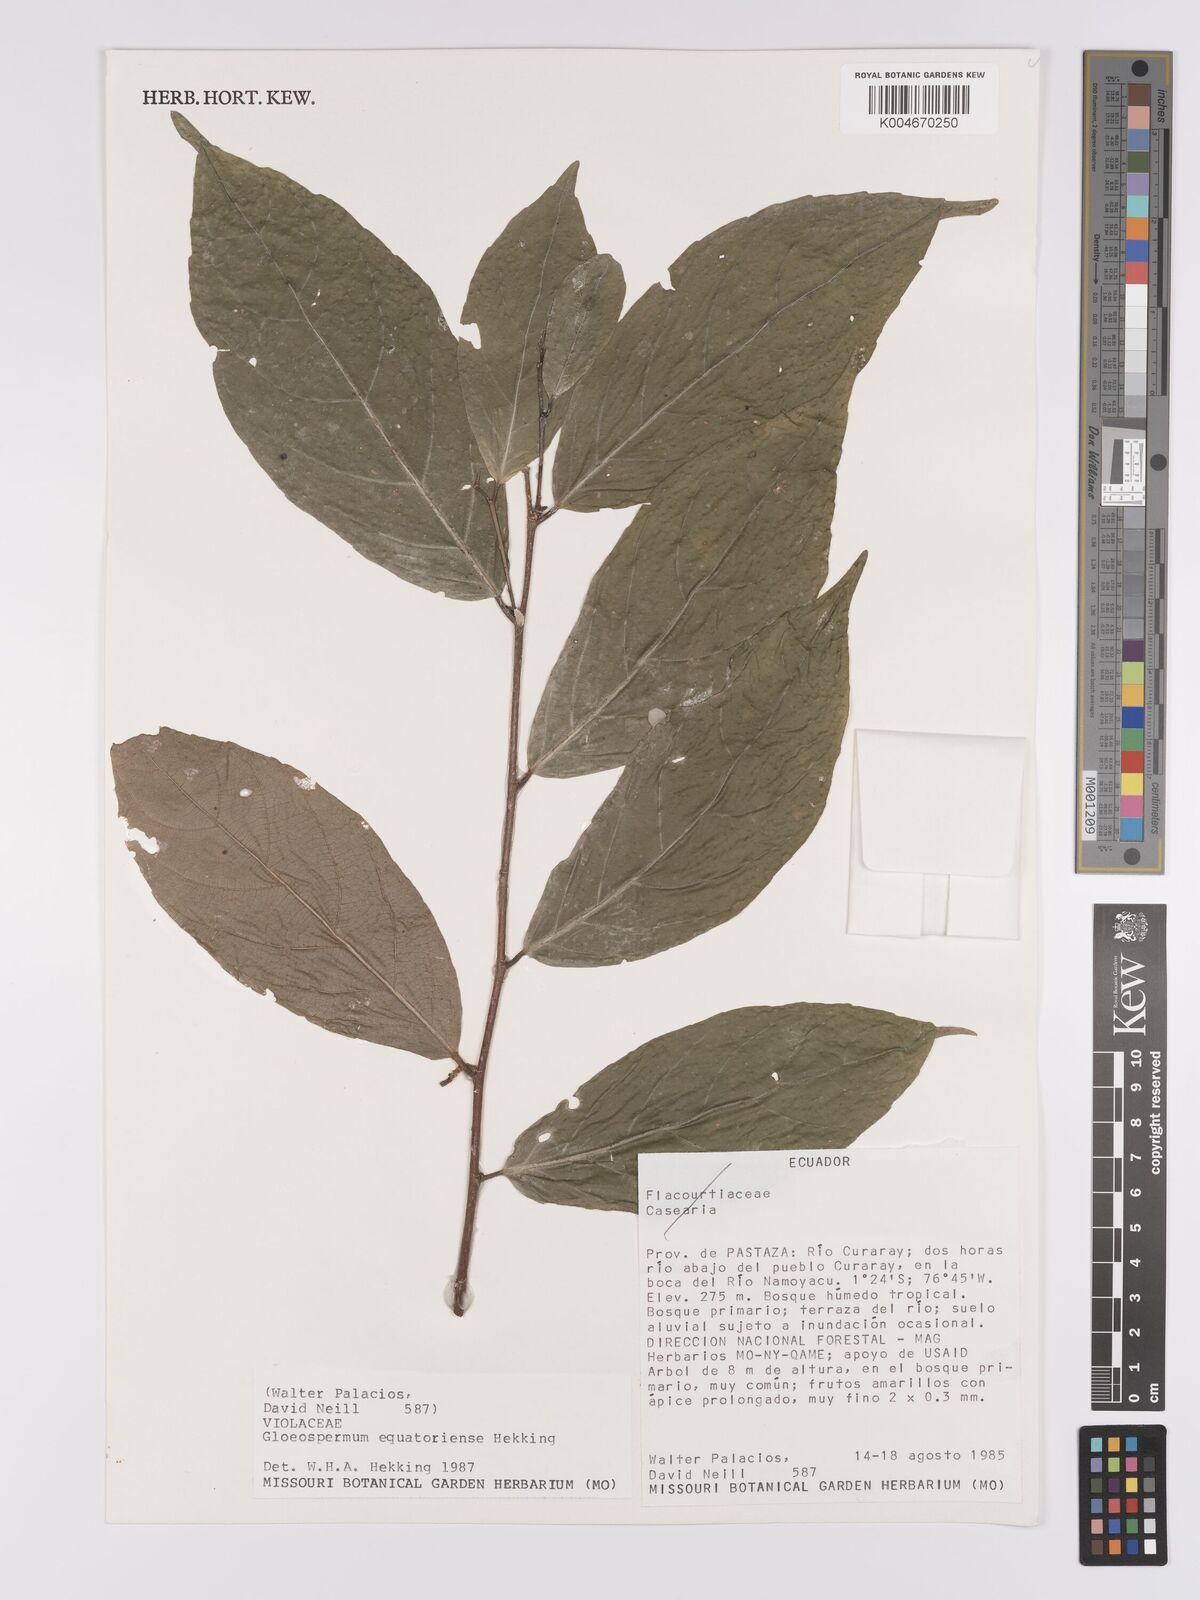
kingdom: Plantae
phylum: Tracheophyta
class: Magnoliopsida
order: Malpighiales
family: Violaceae
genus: Gloeospermum
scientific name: Gloeospermum equatoriense
